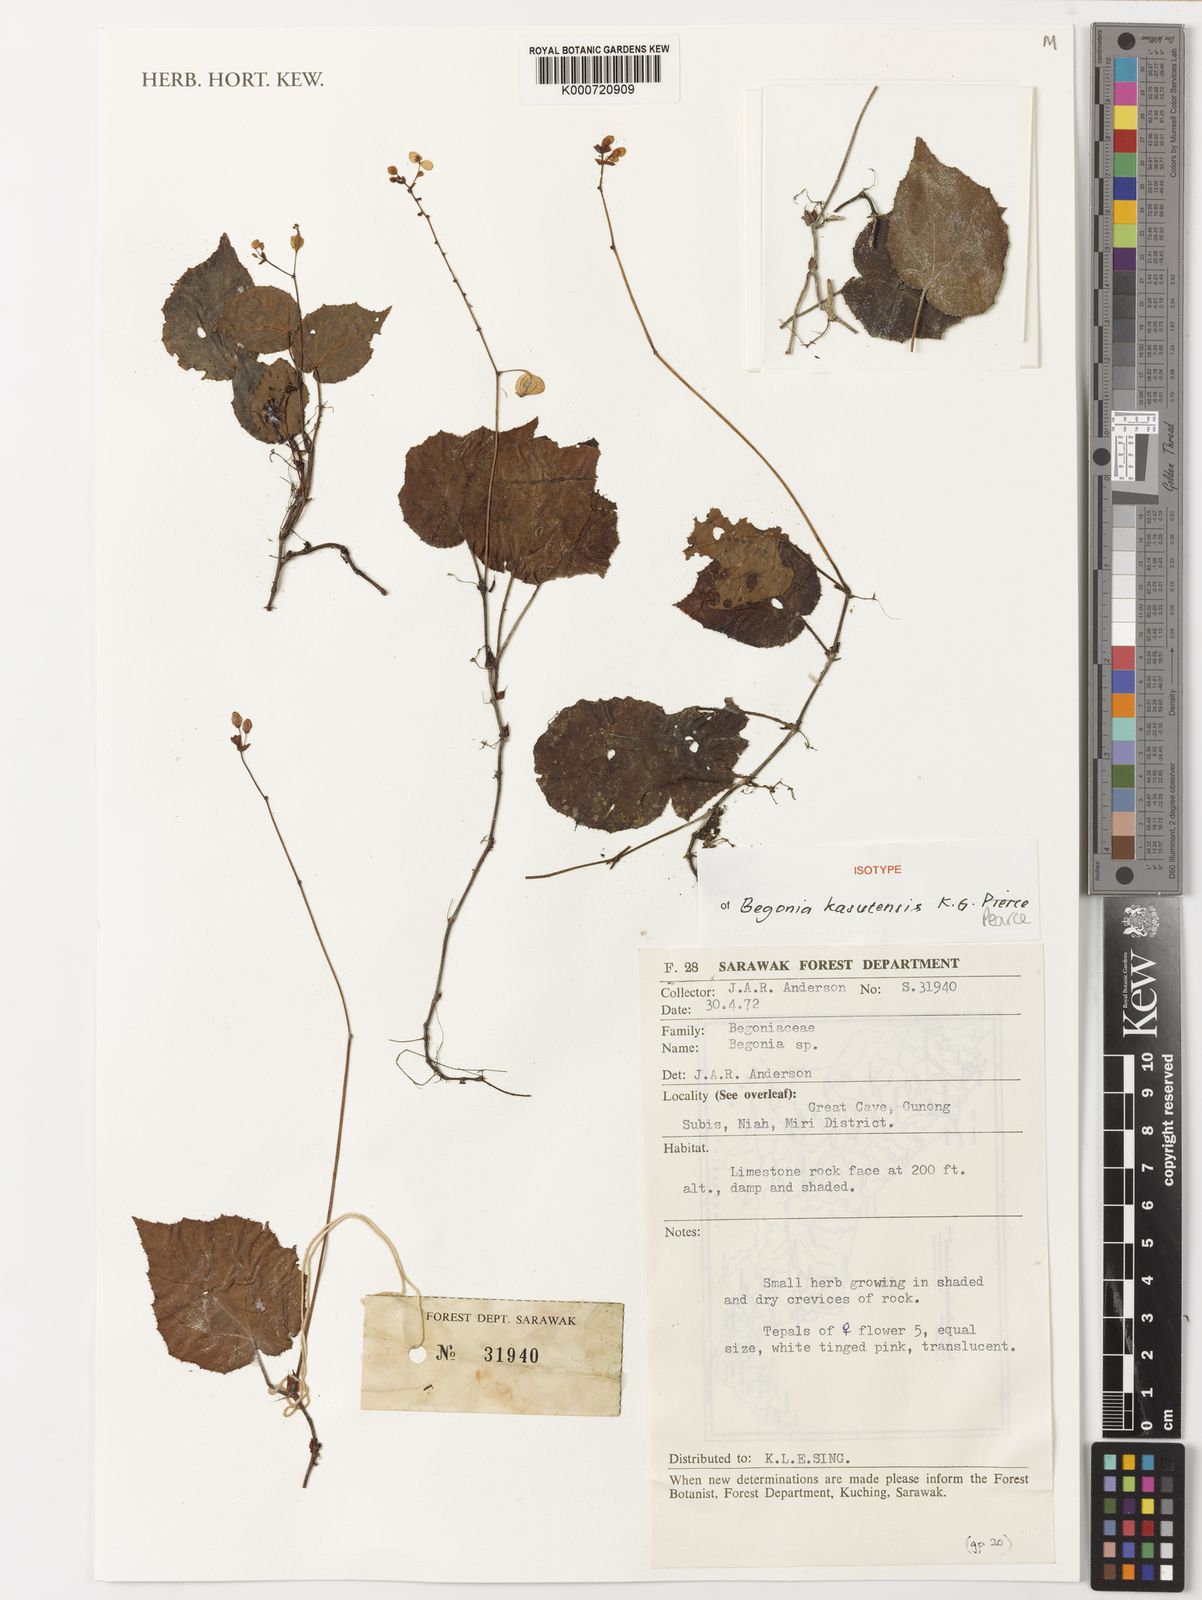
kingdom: Plantae
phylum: Tracheophyta
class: Magnoliopsida
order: Cucurbitales
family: Begoniaceae
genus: Begonia
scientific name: Begonia kasutensis
